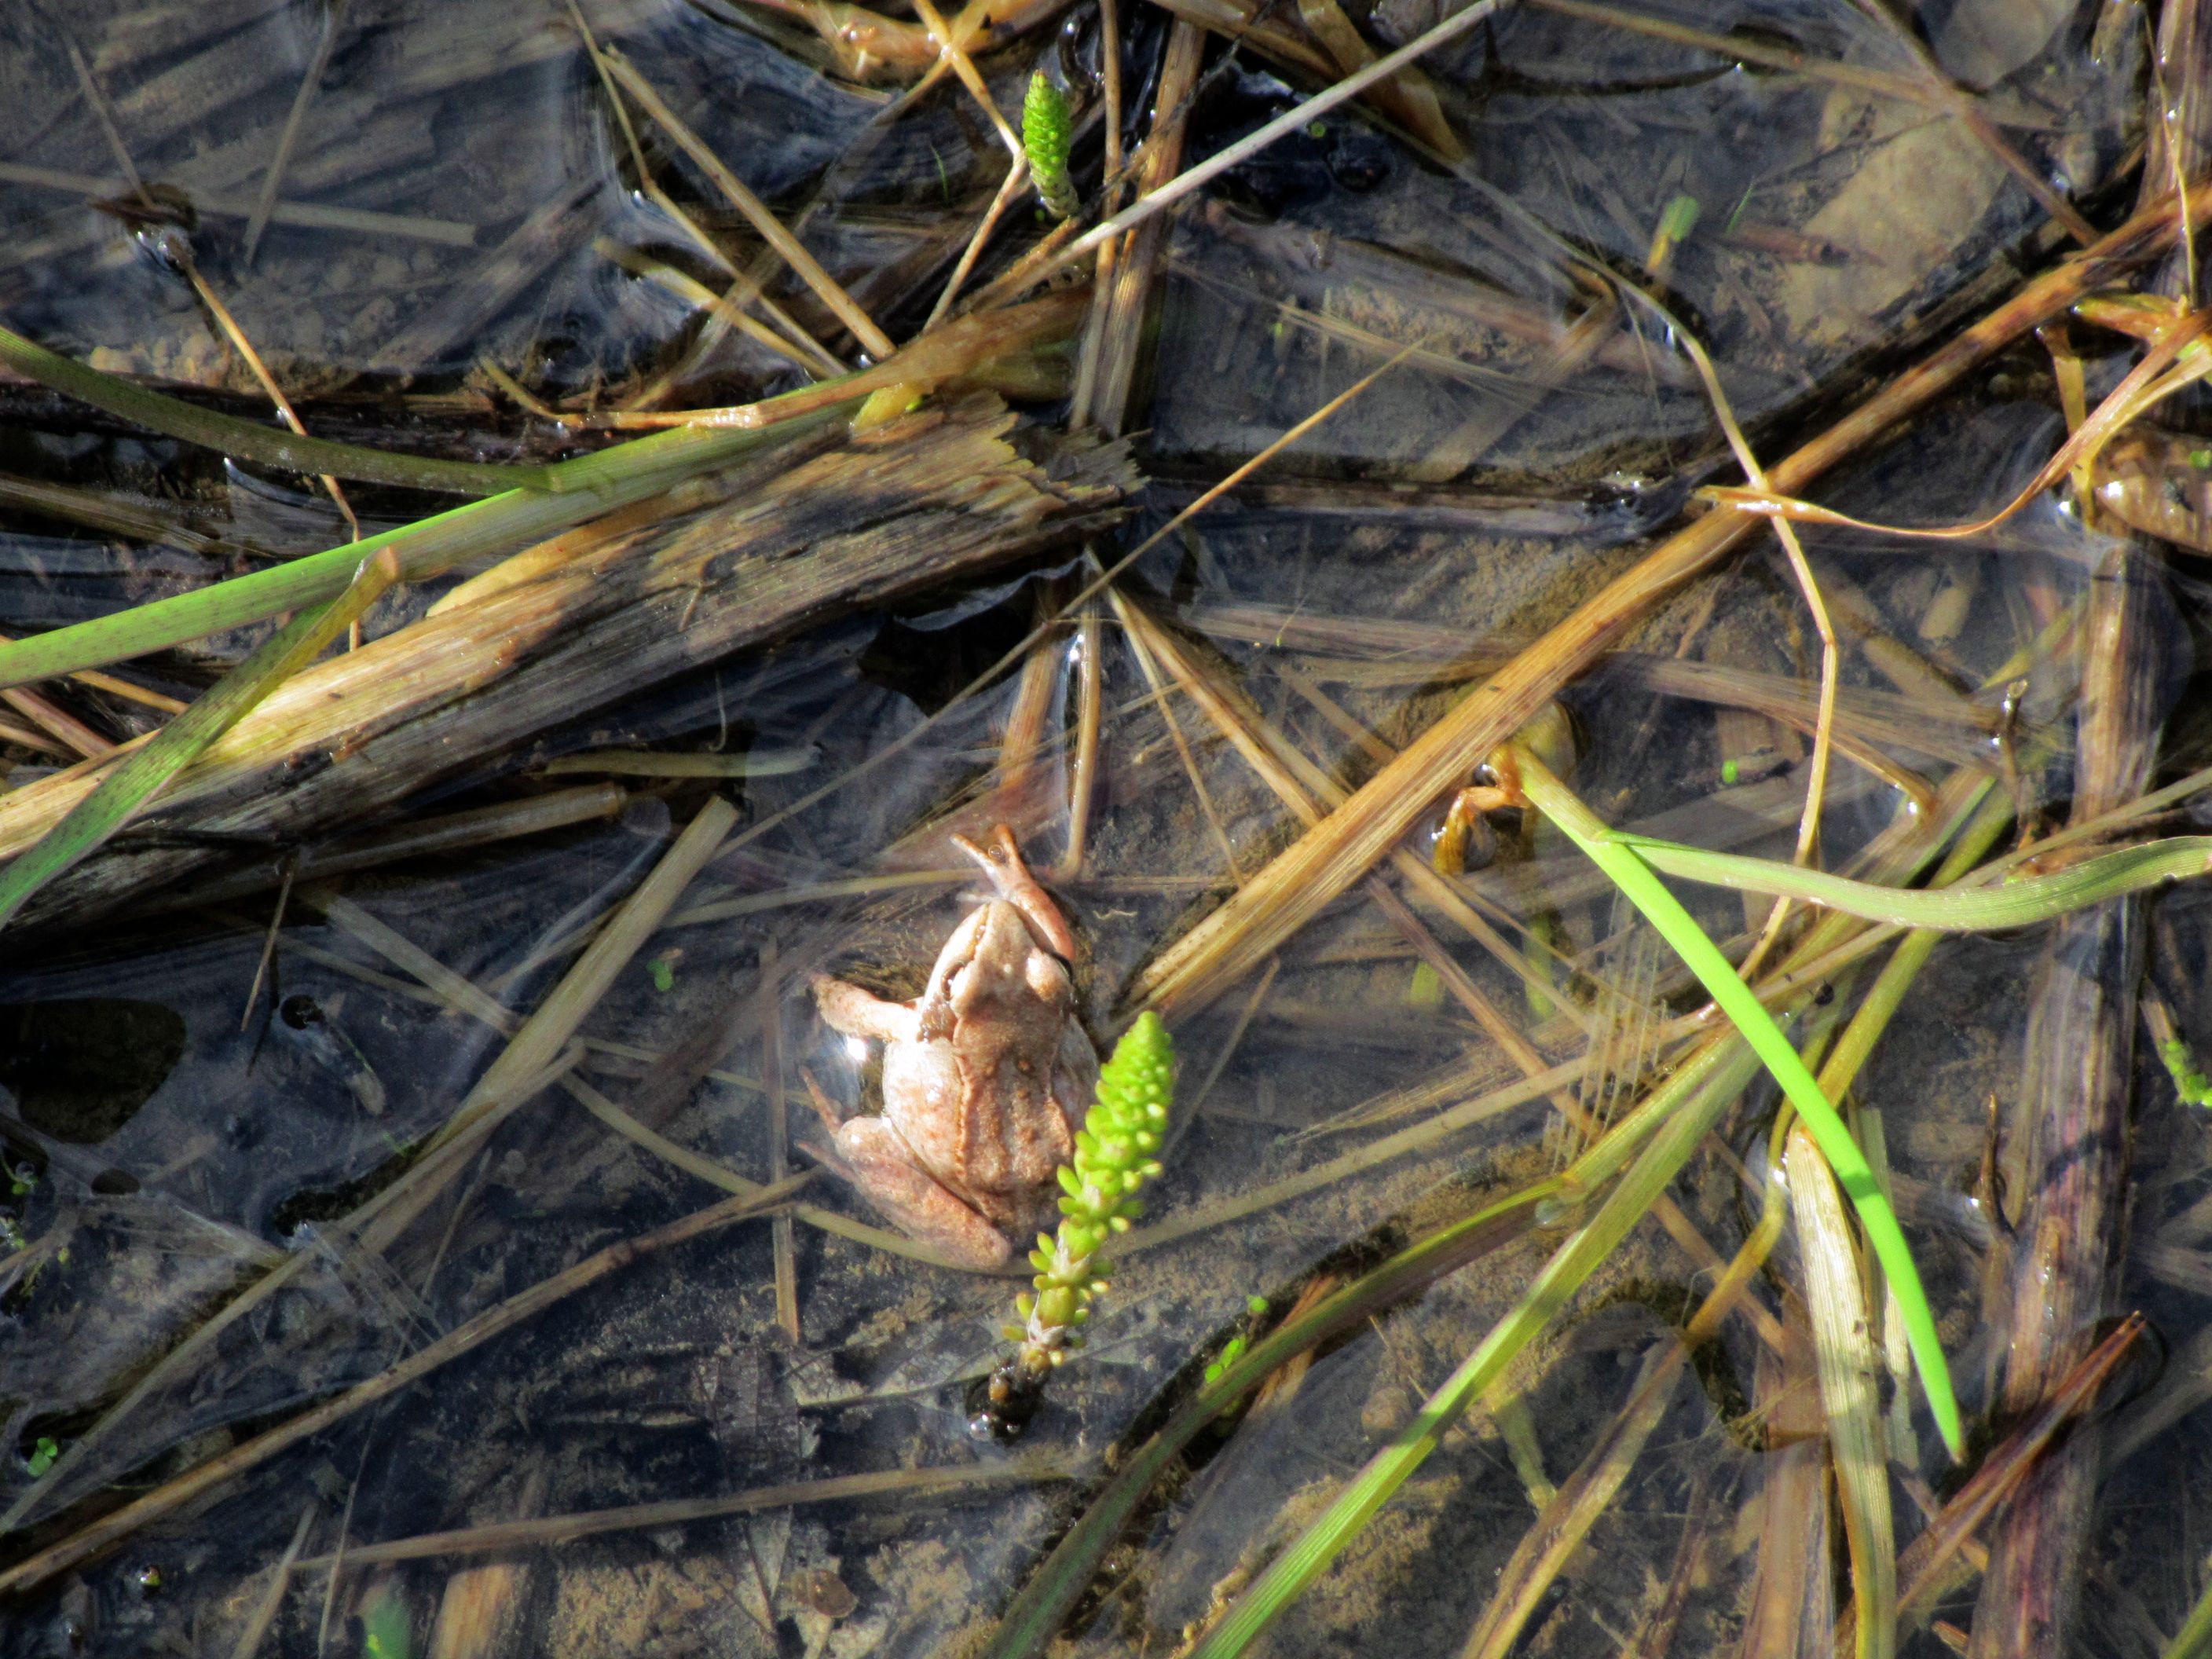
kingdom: Animalia
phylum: Chordata
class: Amphibia
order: Anura
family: Ranidae
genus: Rana
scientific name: Rana temporaria
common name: Common frog
